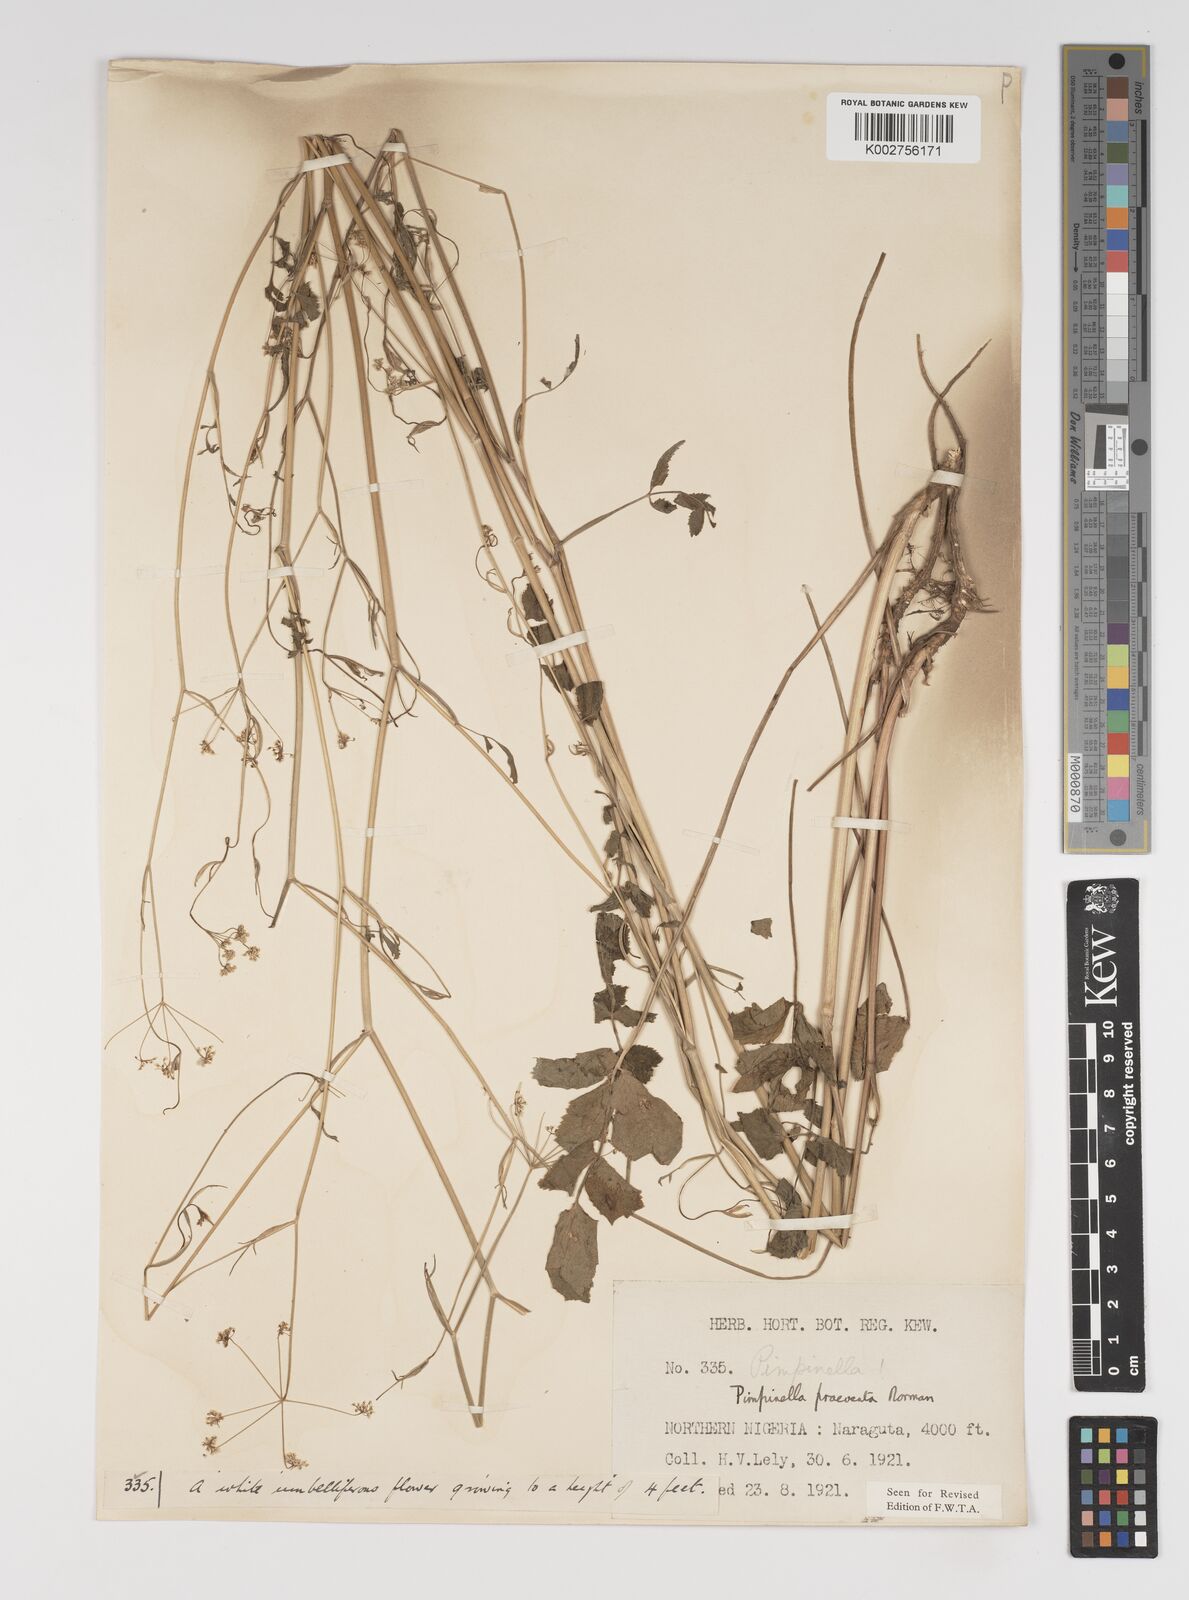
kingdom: Plantae
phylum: Tracheophyta
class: Magnoliopsida
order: Apiales
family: Apiaceae
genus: Pimpinella
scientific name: Pimpinella hirtella
